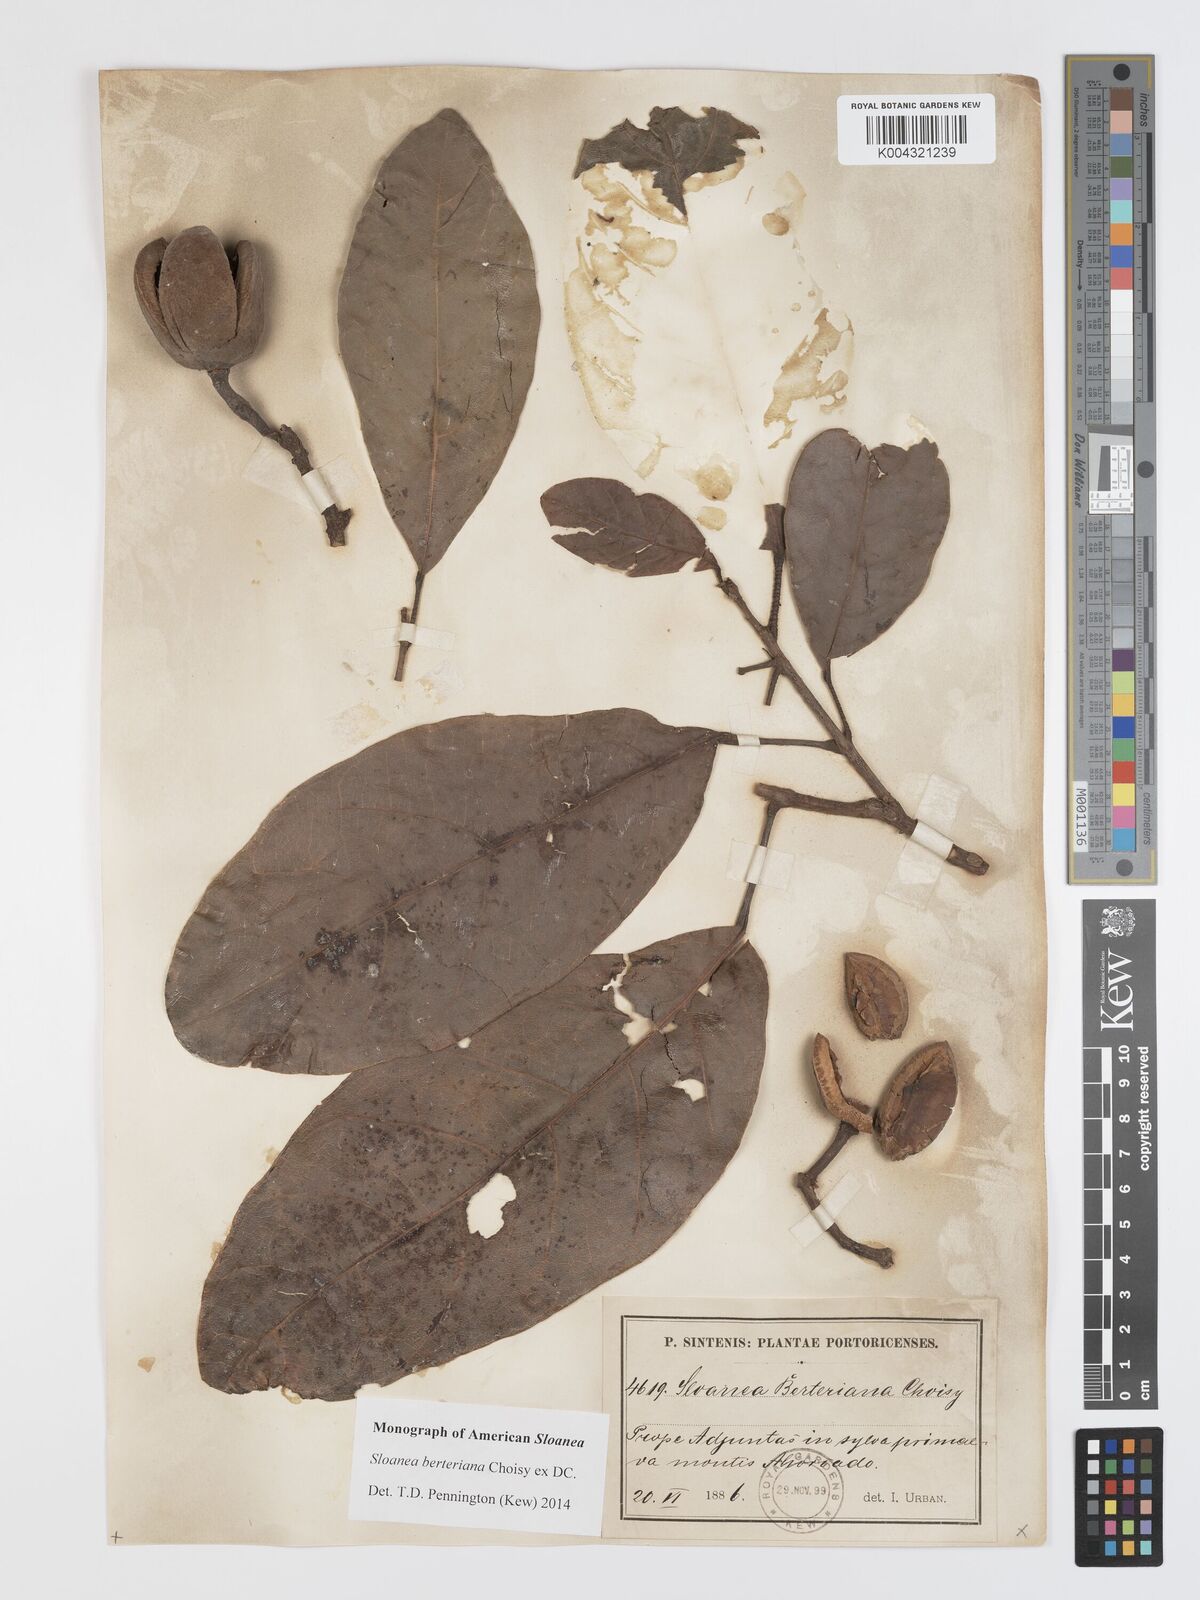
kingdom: Plantae
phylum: Tracheophyta
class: Magnoliopsida
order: Oxalidales
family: Elaeocarpaceae
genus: Sloanea
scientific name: Sloanea berteroana
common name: Bullwood
